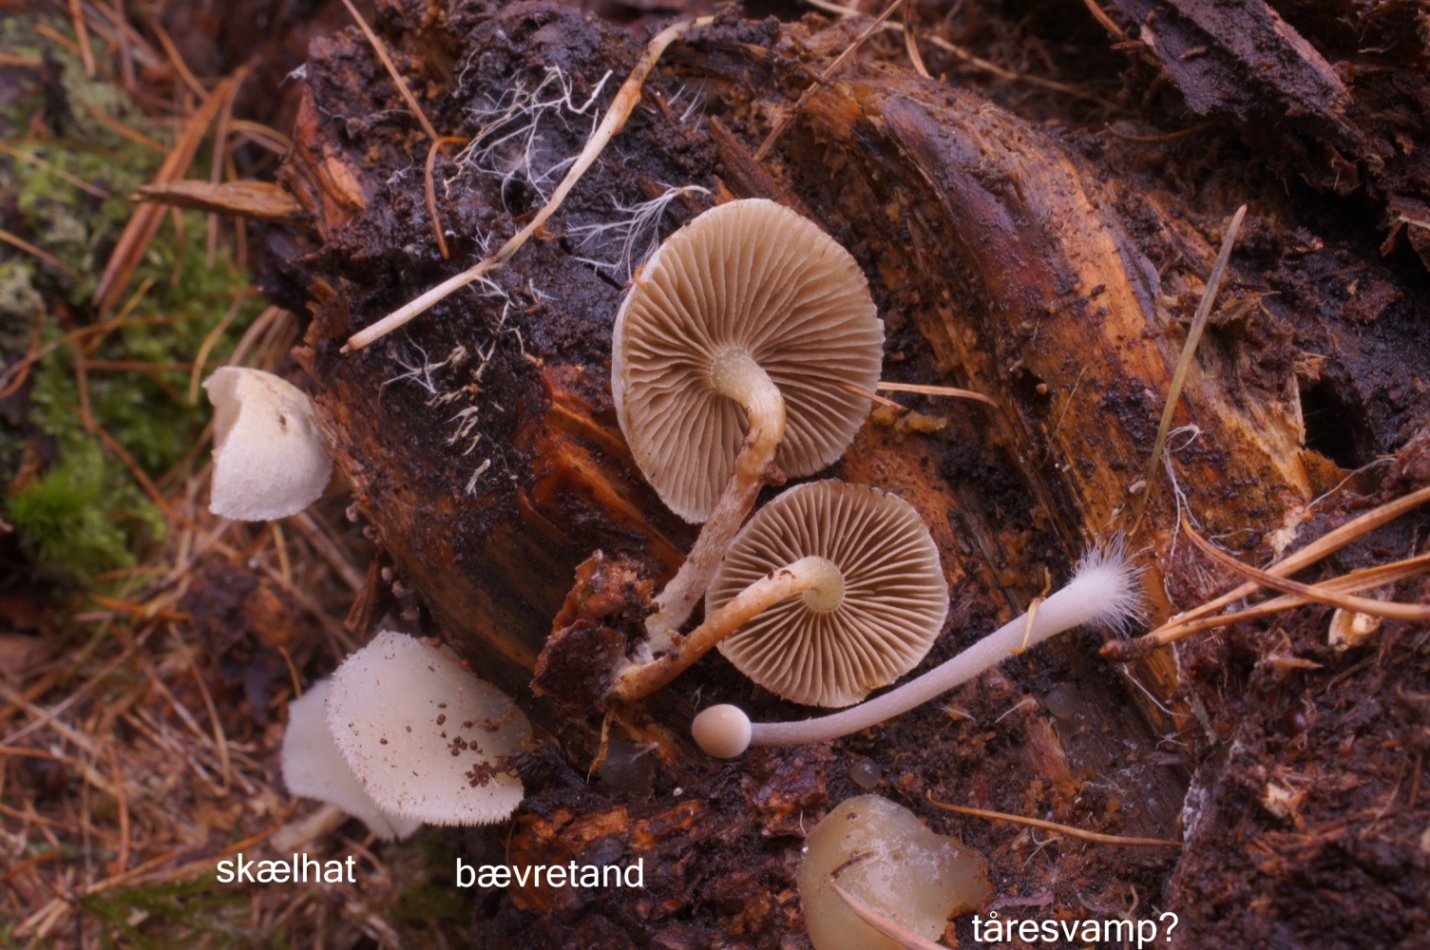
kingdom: Fungi
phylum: Basidiomycota
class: Agaricomycetes
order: Agaricales
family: Strophariaceae
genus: Pholiota
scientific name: Pholiota scamba
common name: dværg-skælhat
